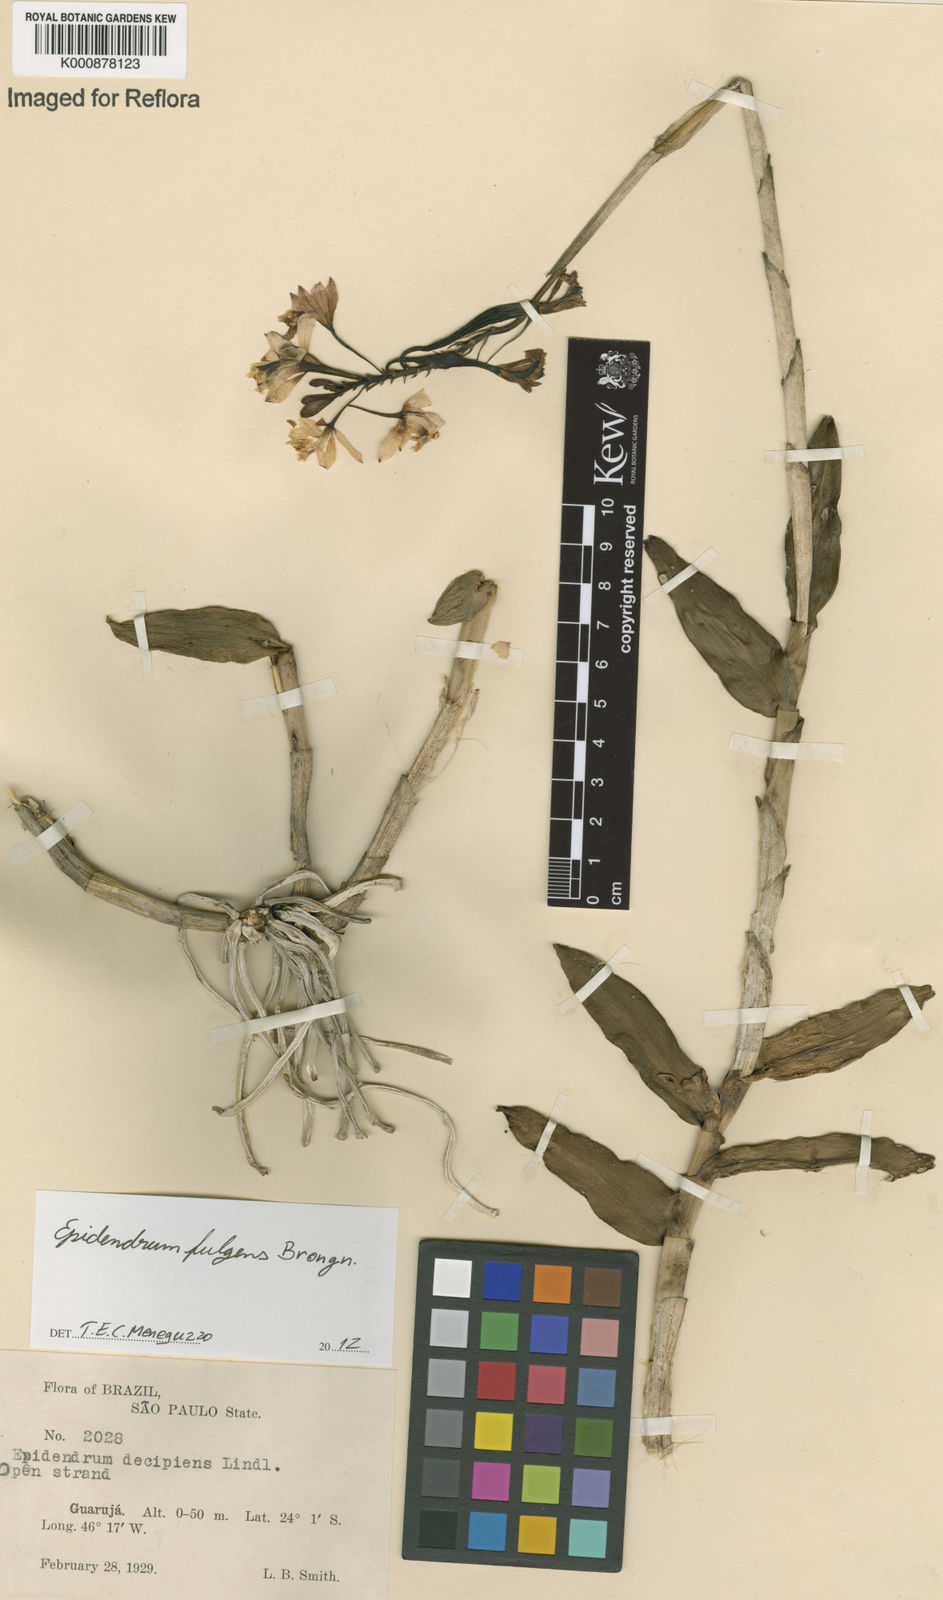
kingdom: Plantae
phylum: Tracheophyta
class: Liliopsida
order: Asparagales
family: Orchidaceae
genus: Epidendrum
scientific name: Epidendrum fulgens
